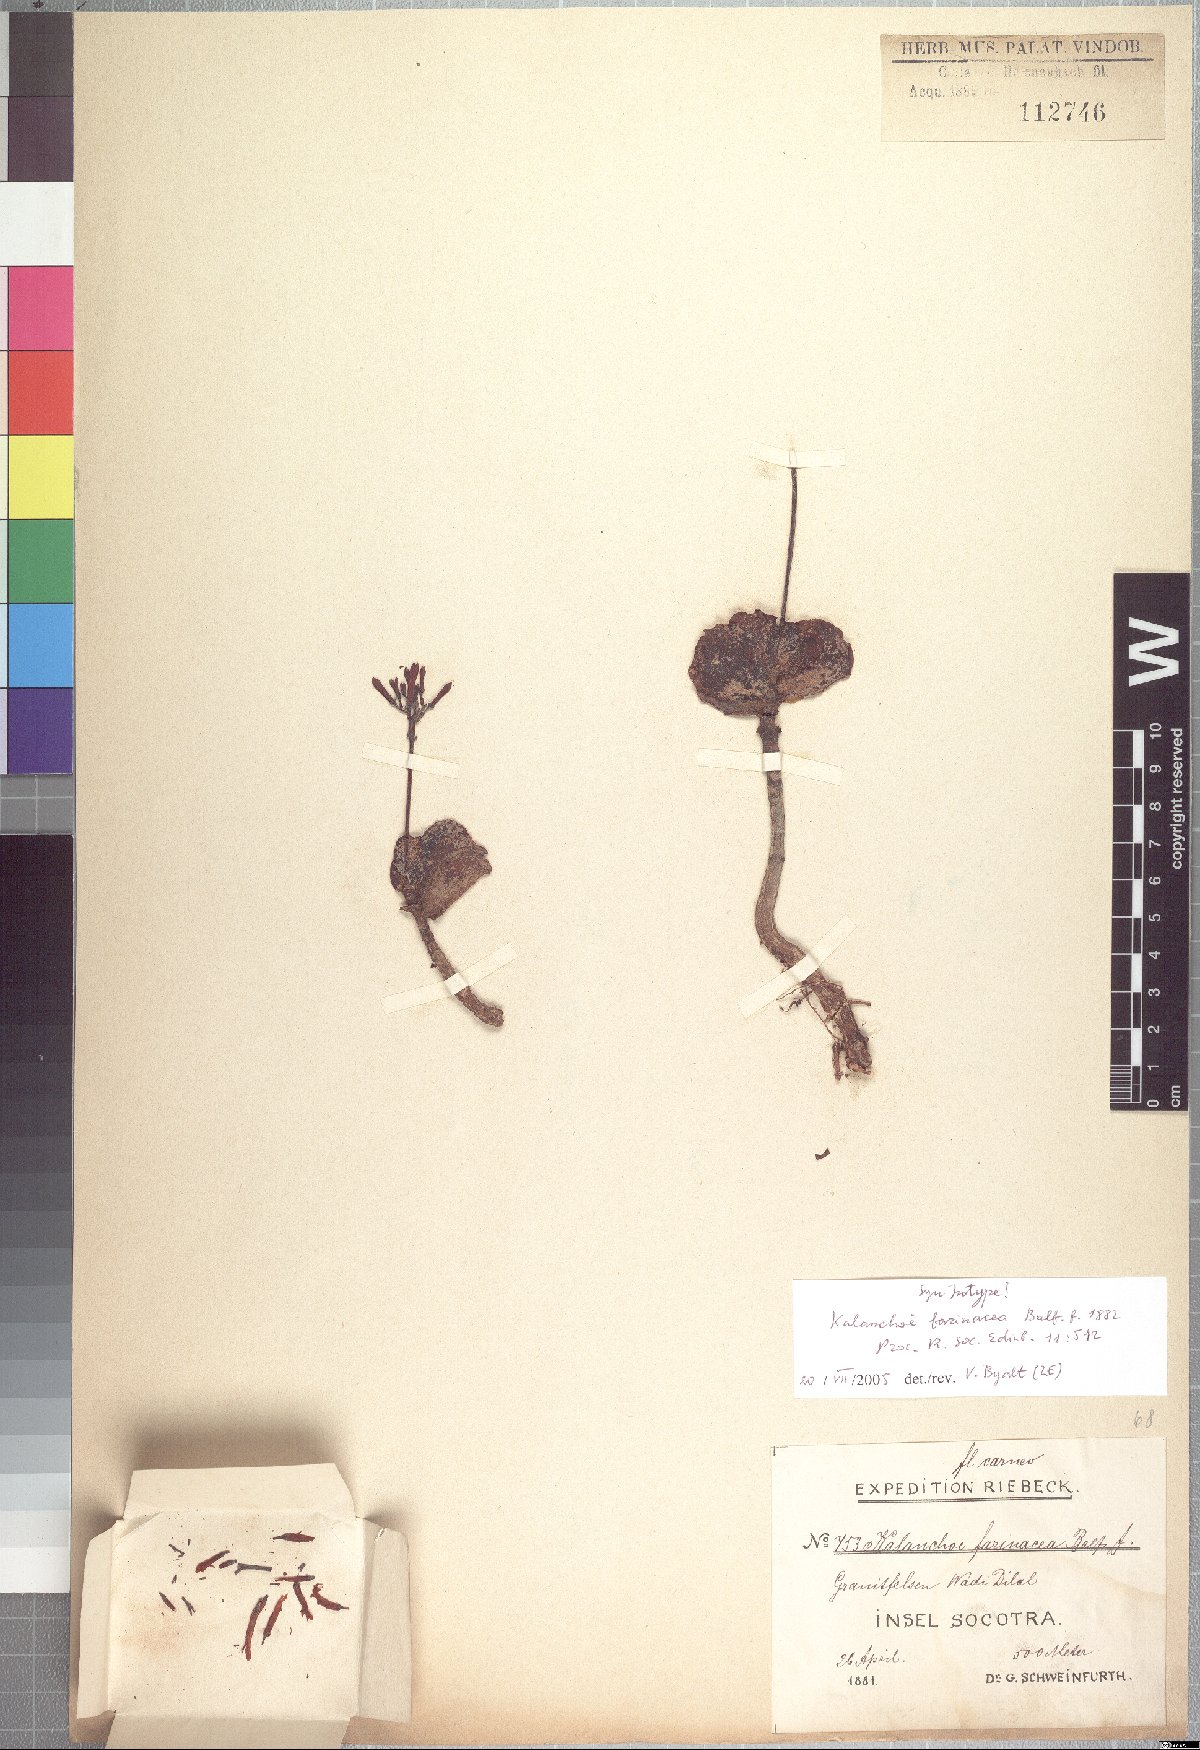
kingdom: Plantae
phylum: Tracheophyta
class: Magnoliopsida
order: Saxifragales
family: Crassulaceae
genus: Kalanchoe
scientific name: Kalanchoe farinacea
